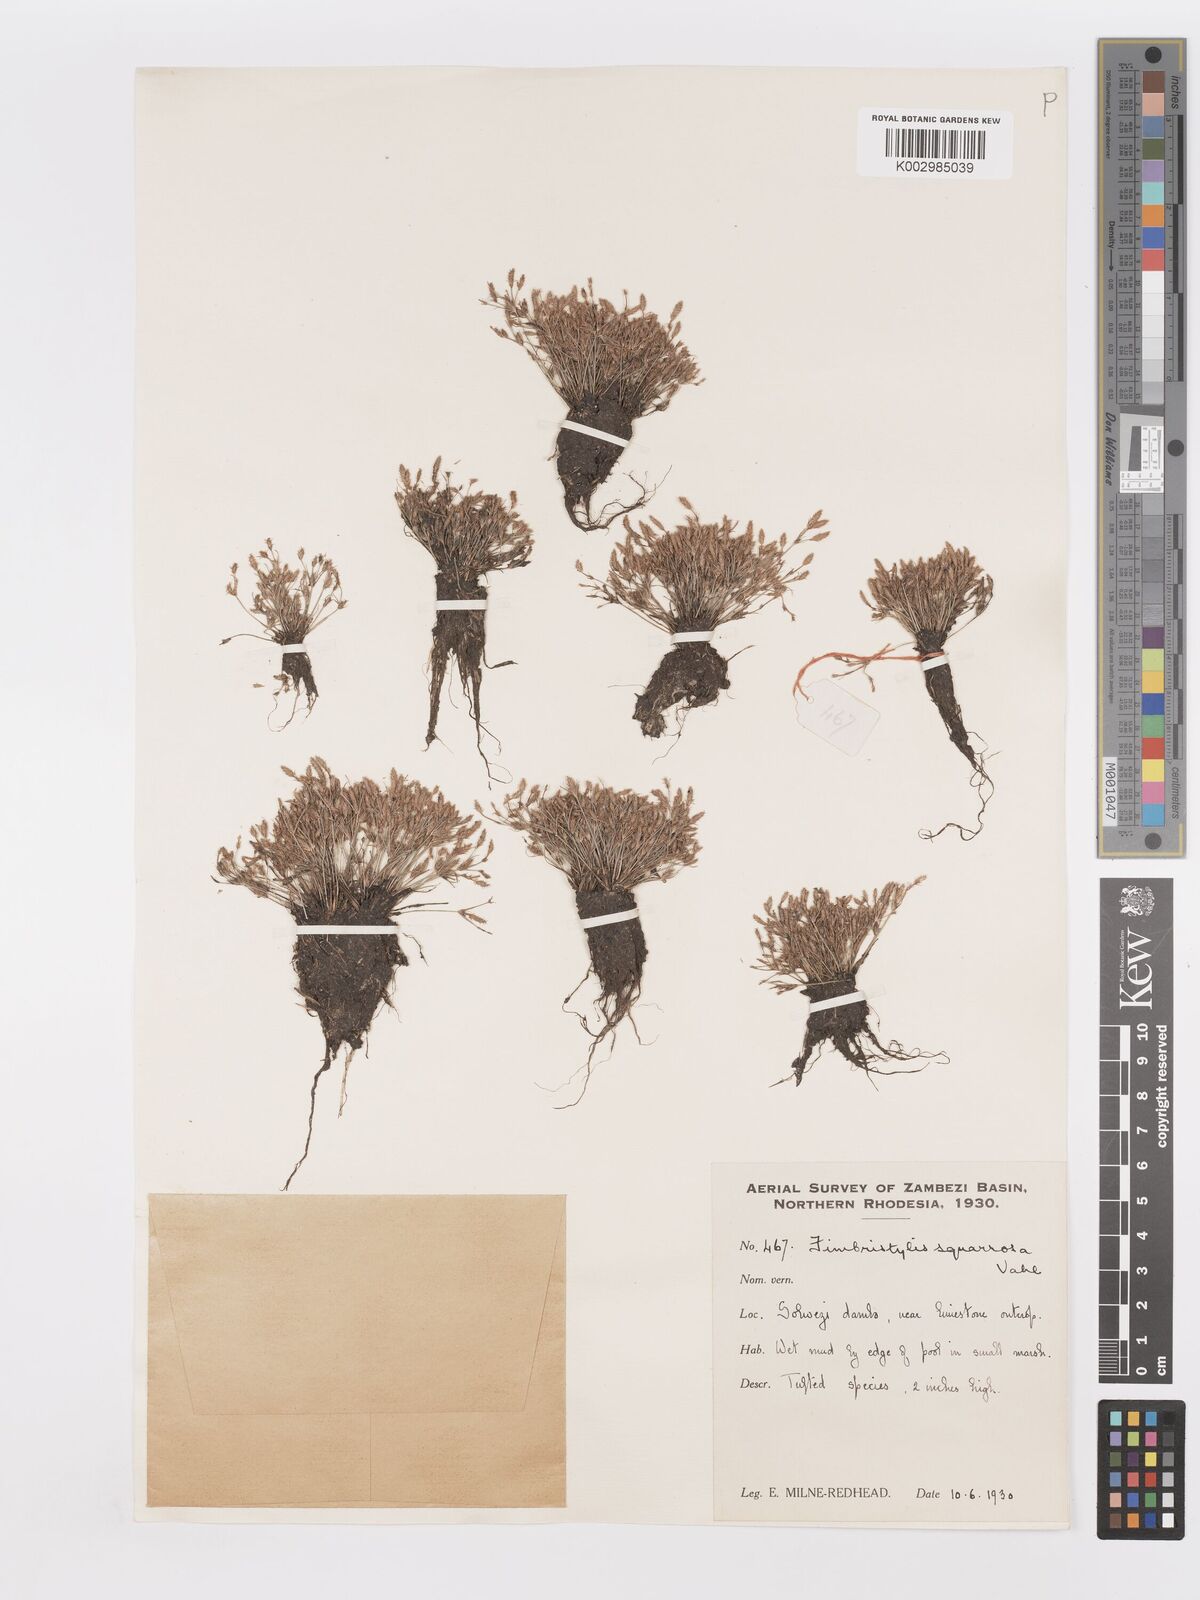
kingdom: Plantae
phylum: Tracheophyta
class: Liliopsida
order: Poales
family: Cyperaceae
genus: Fimbristylis
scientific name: Fimbristylis squarrosa
